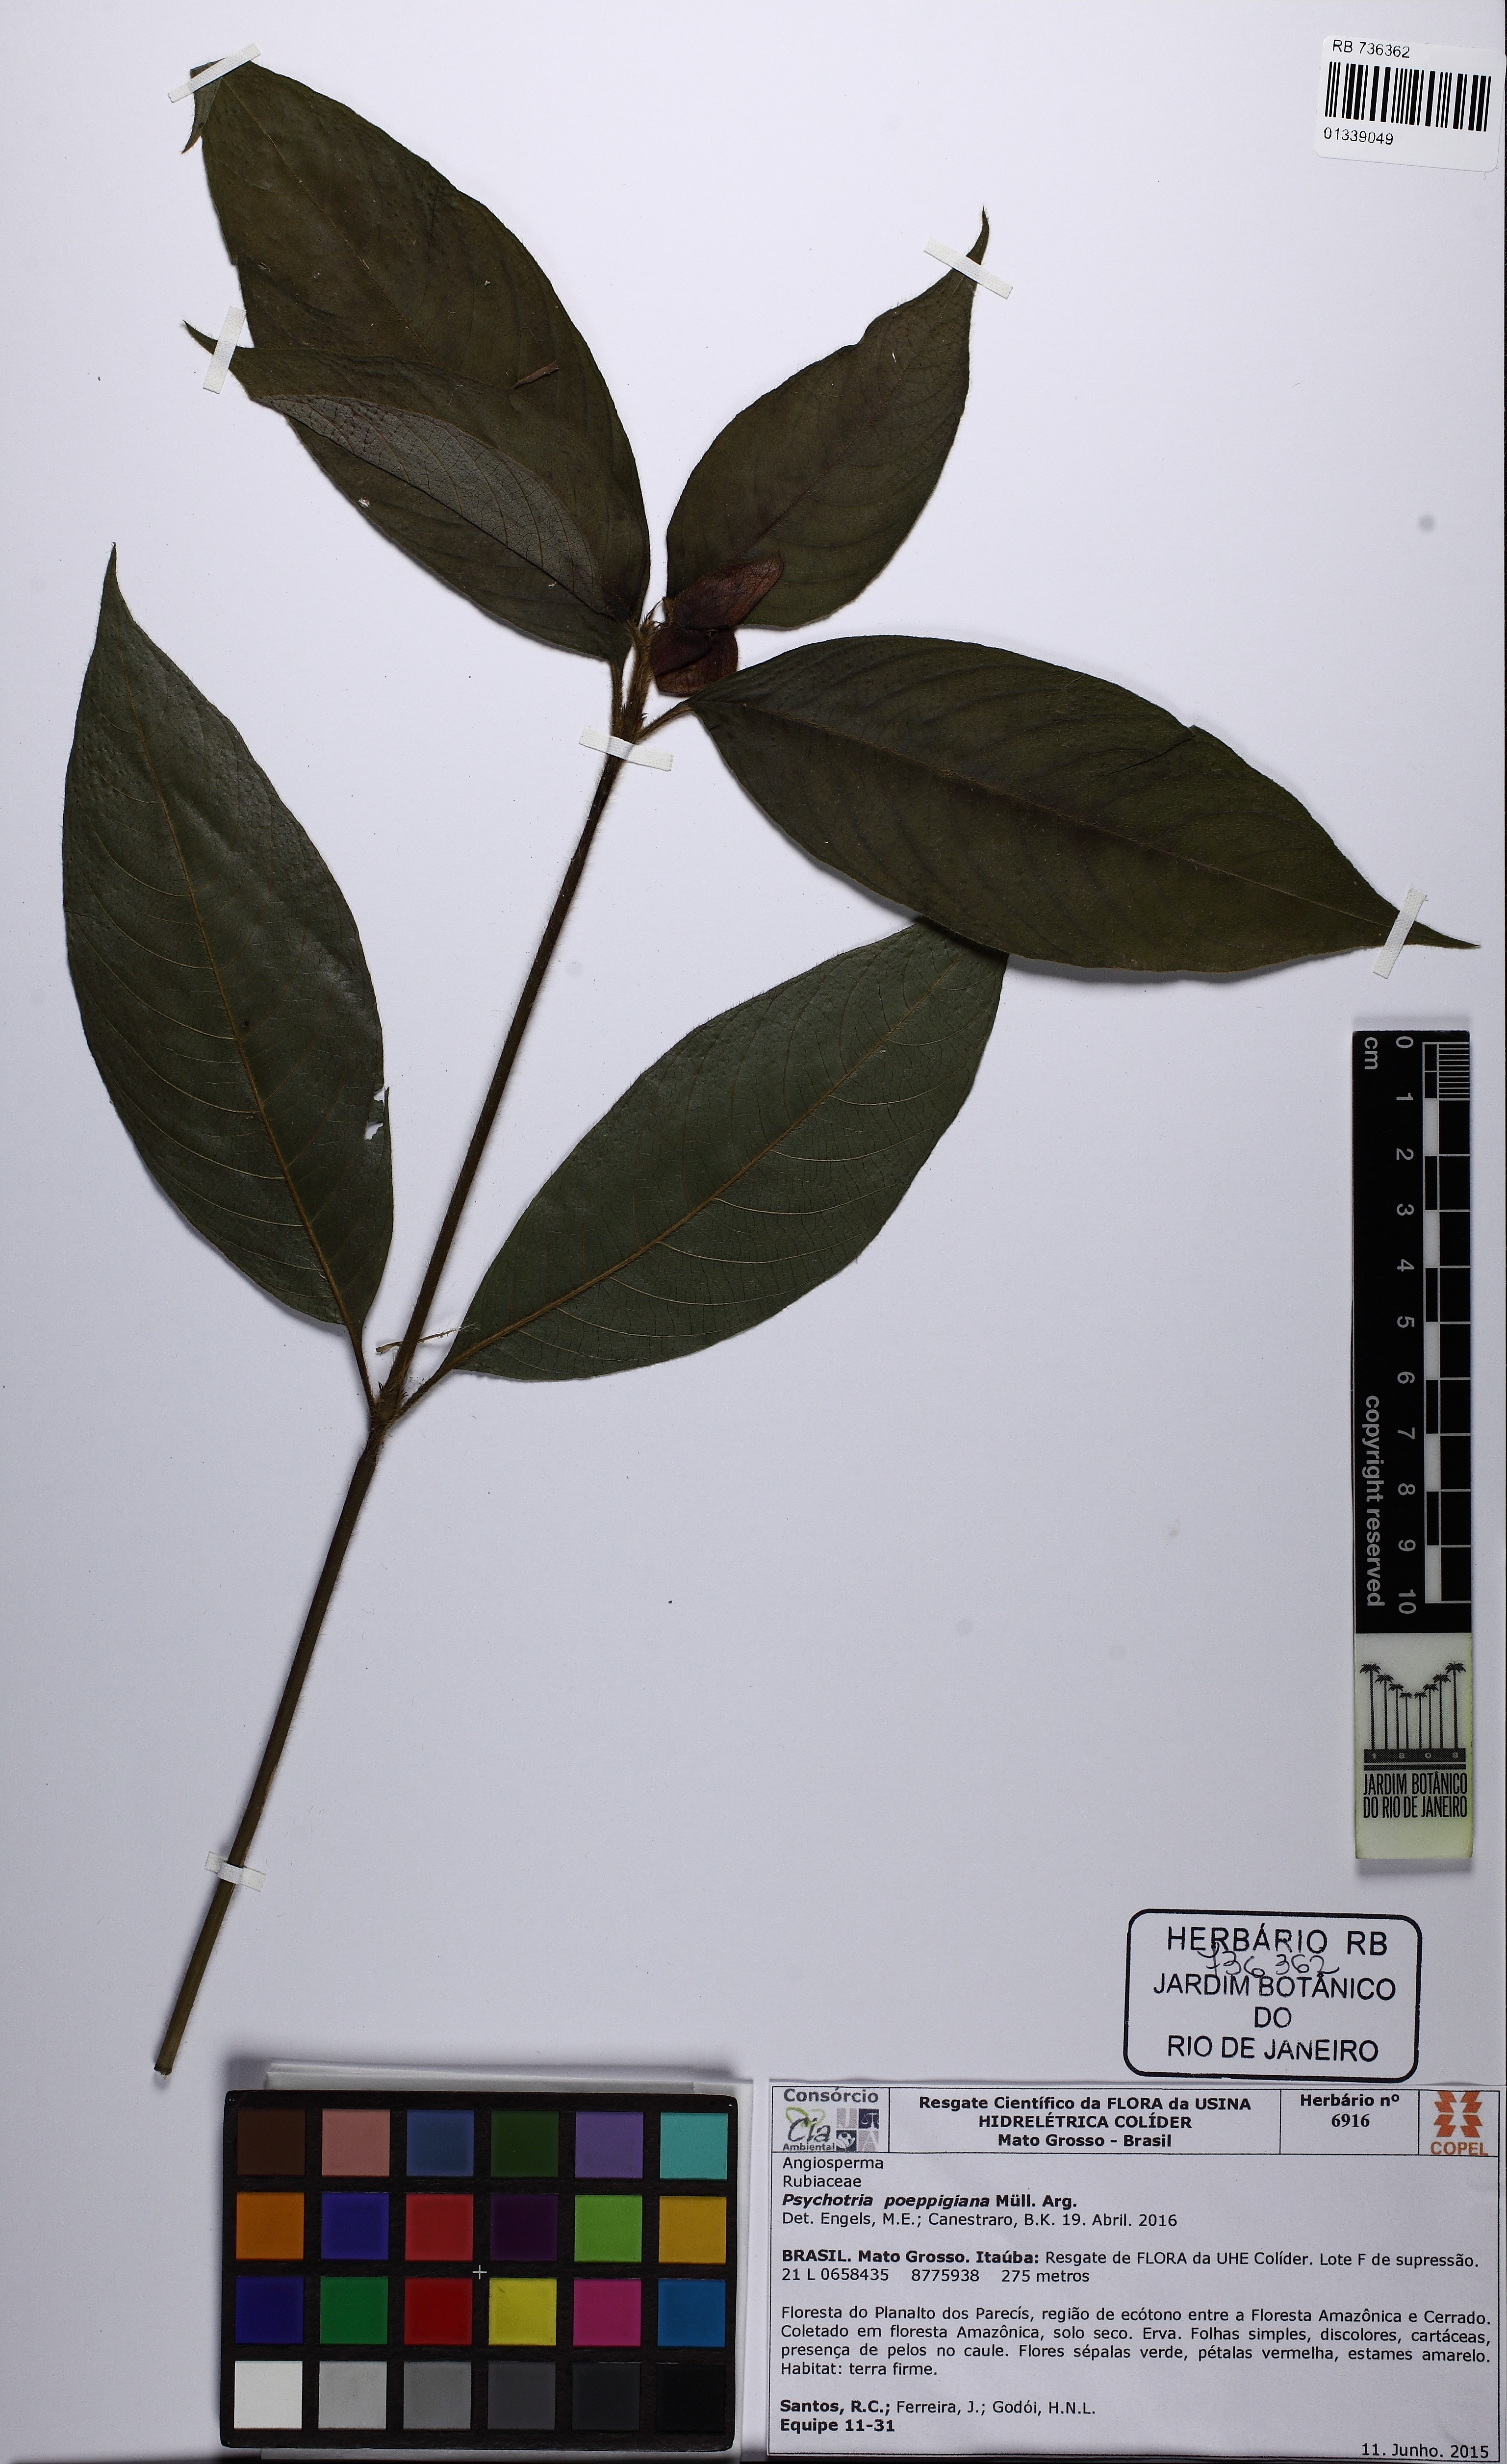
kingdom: Plantae
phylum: Tracheophyta
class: Magnoliopsida
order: Gentianales
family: Rubiaceae
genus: Palicourea
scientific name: Palicourea tomentosa
